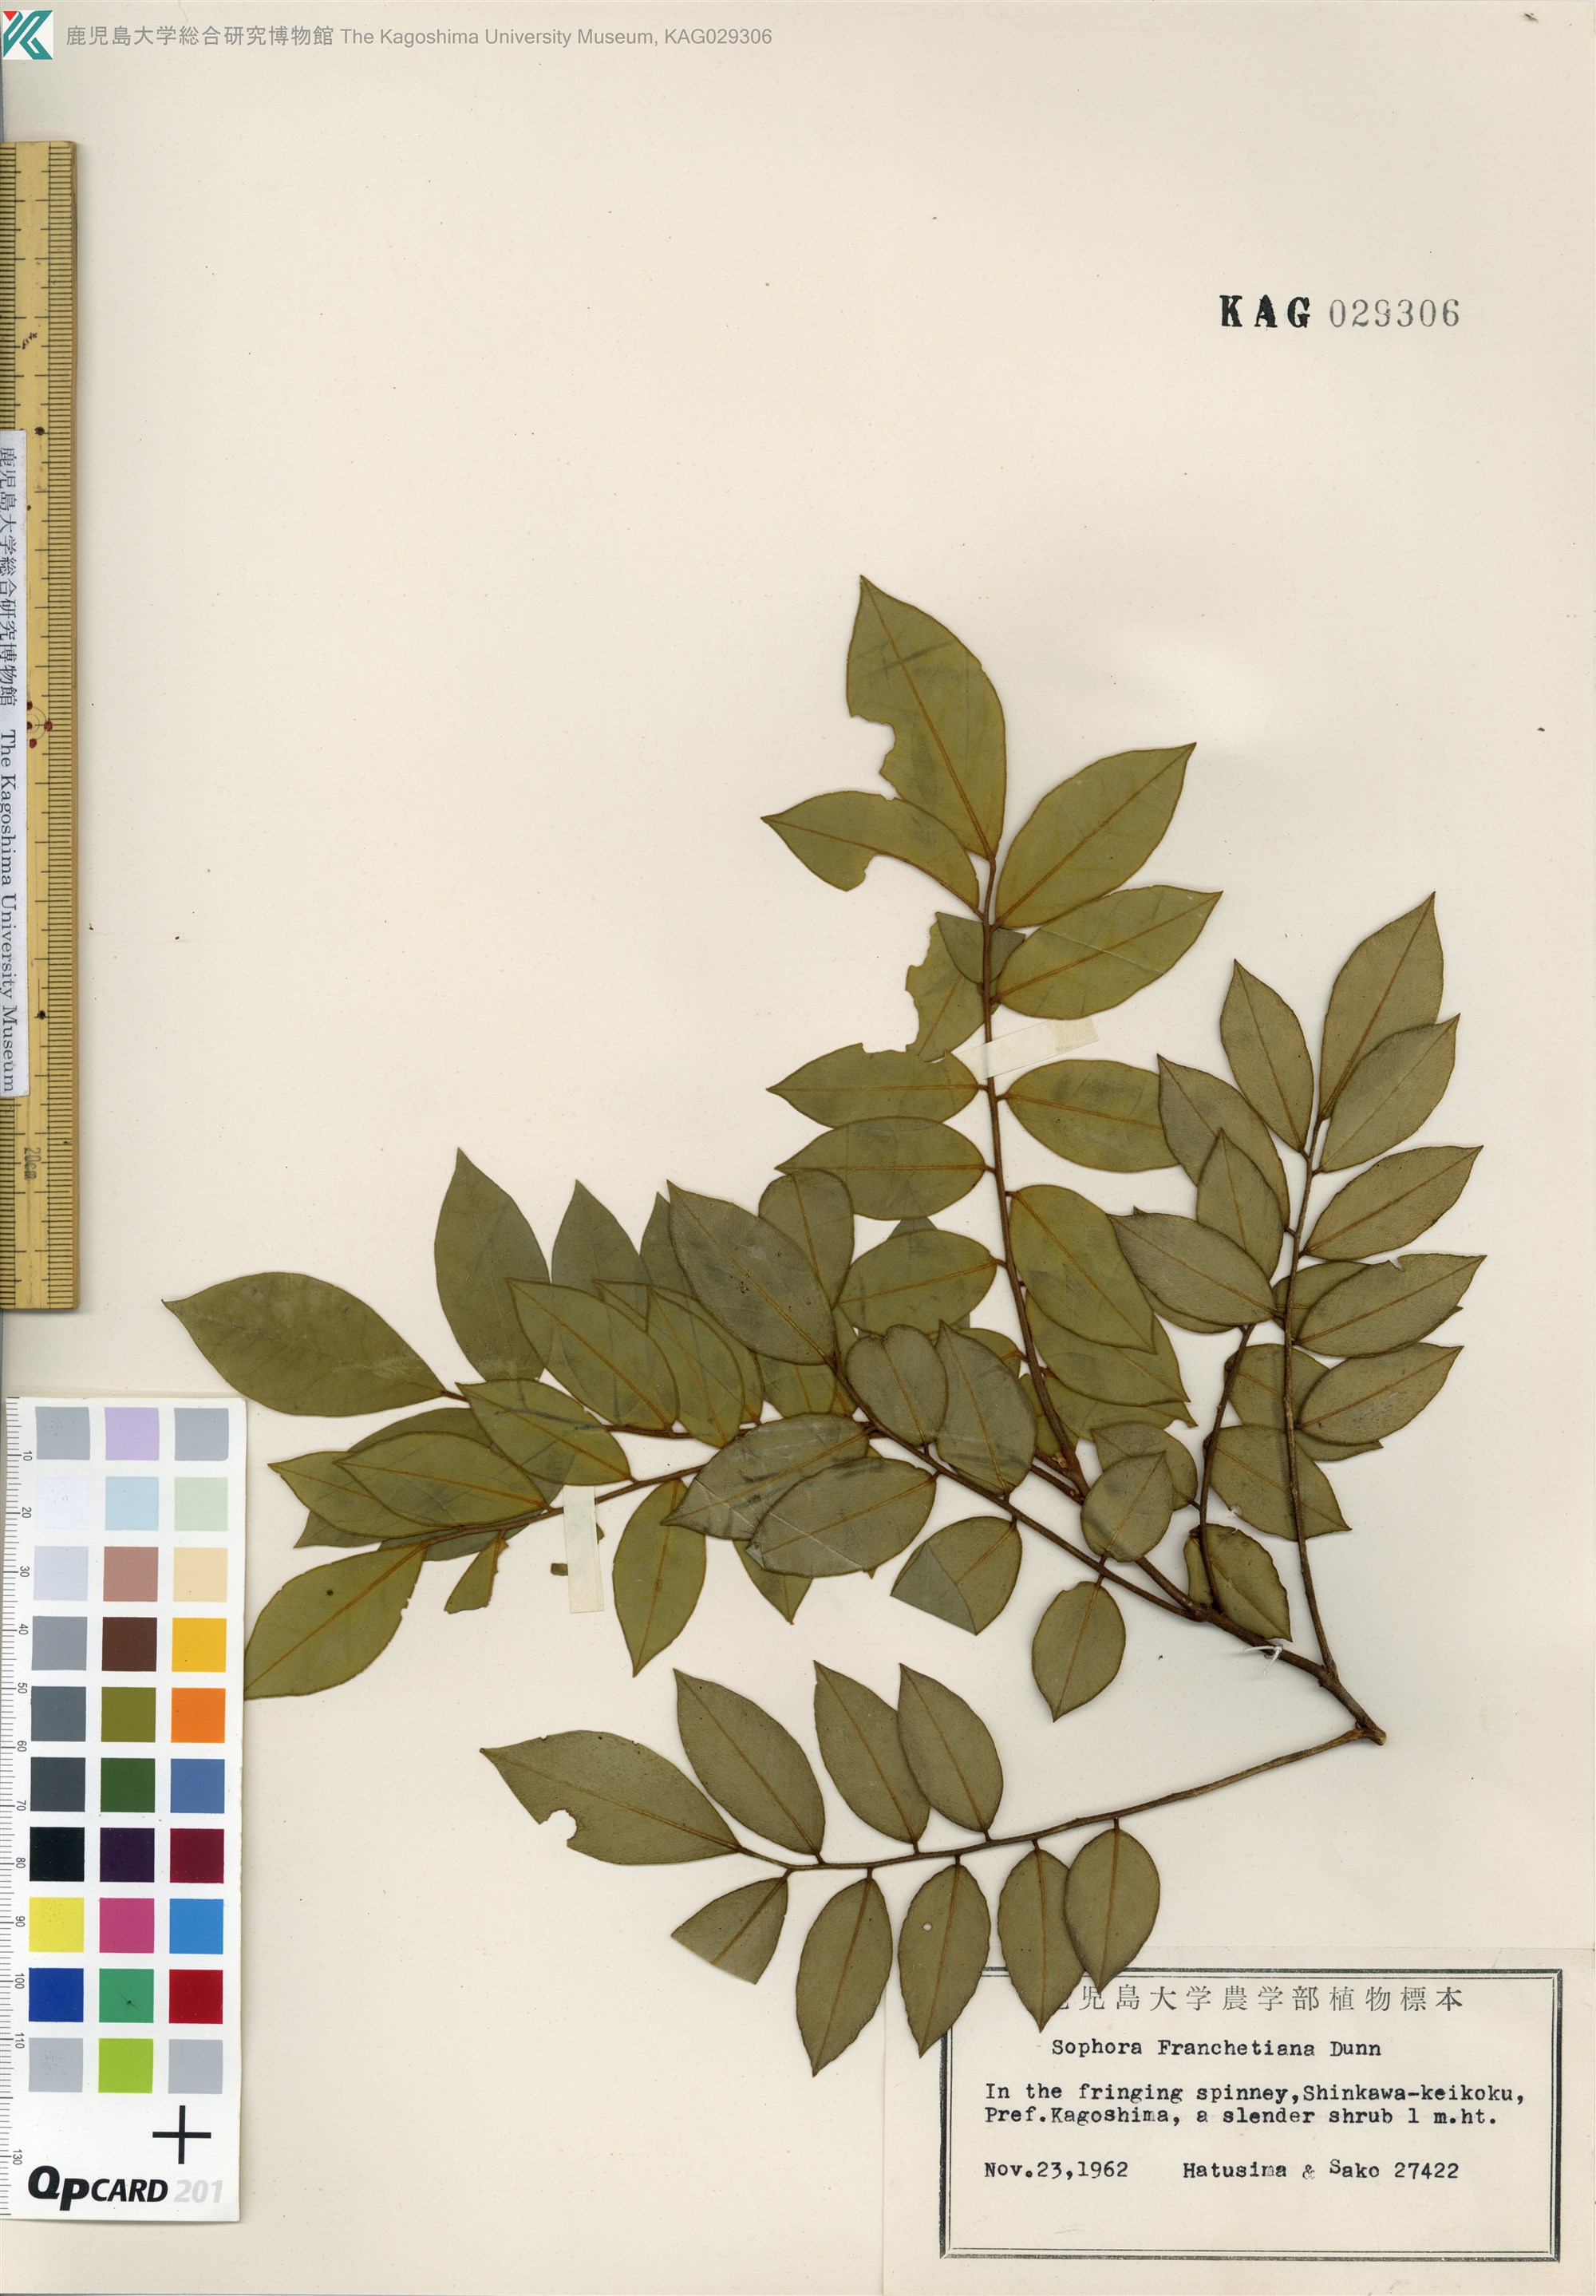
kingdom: Plantae
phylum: Tracheophyta
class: Magnoliopsida
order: Fabales
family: Fabaceae
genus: Sophora
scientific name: Sophora franchetiana
